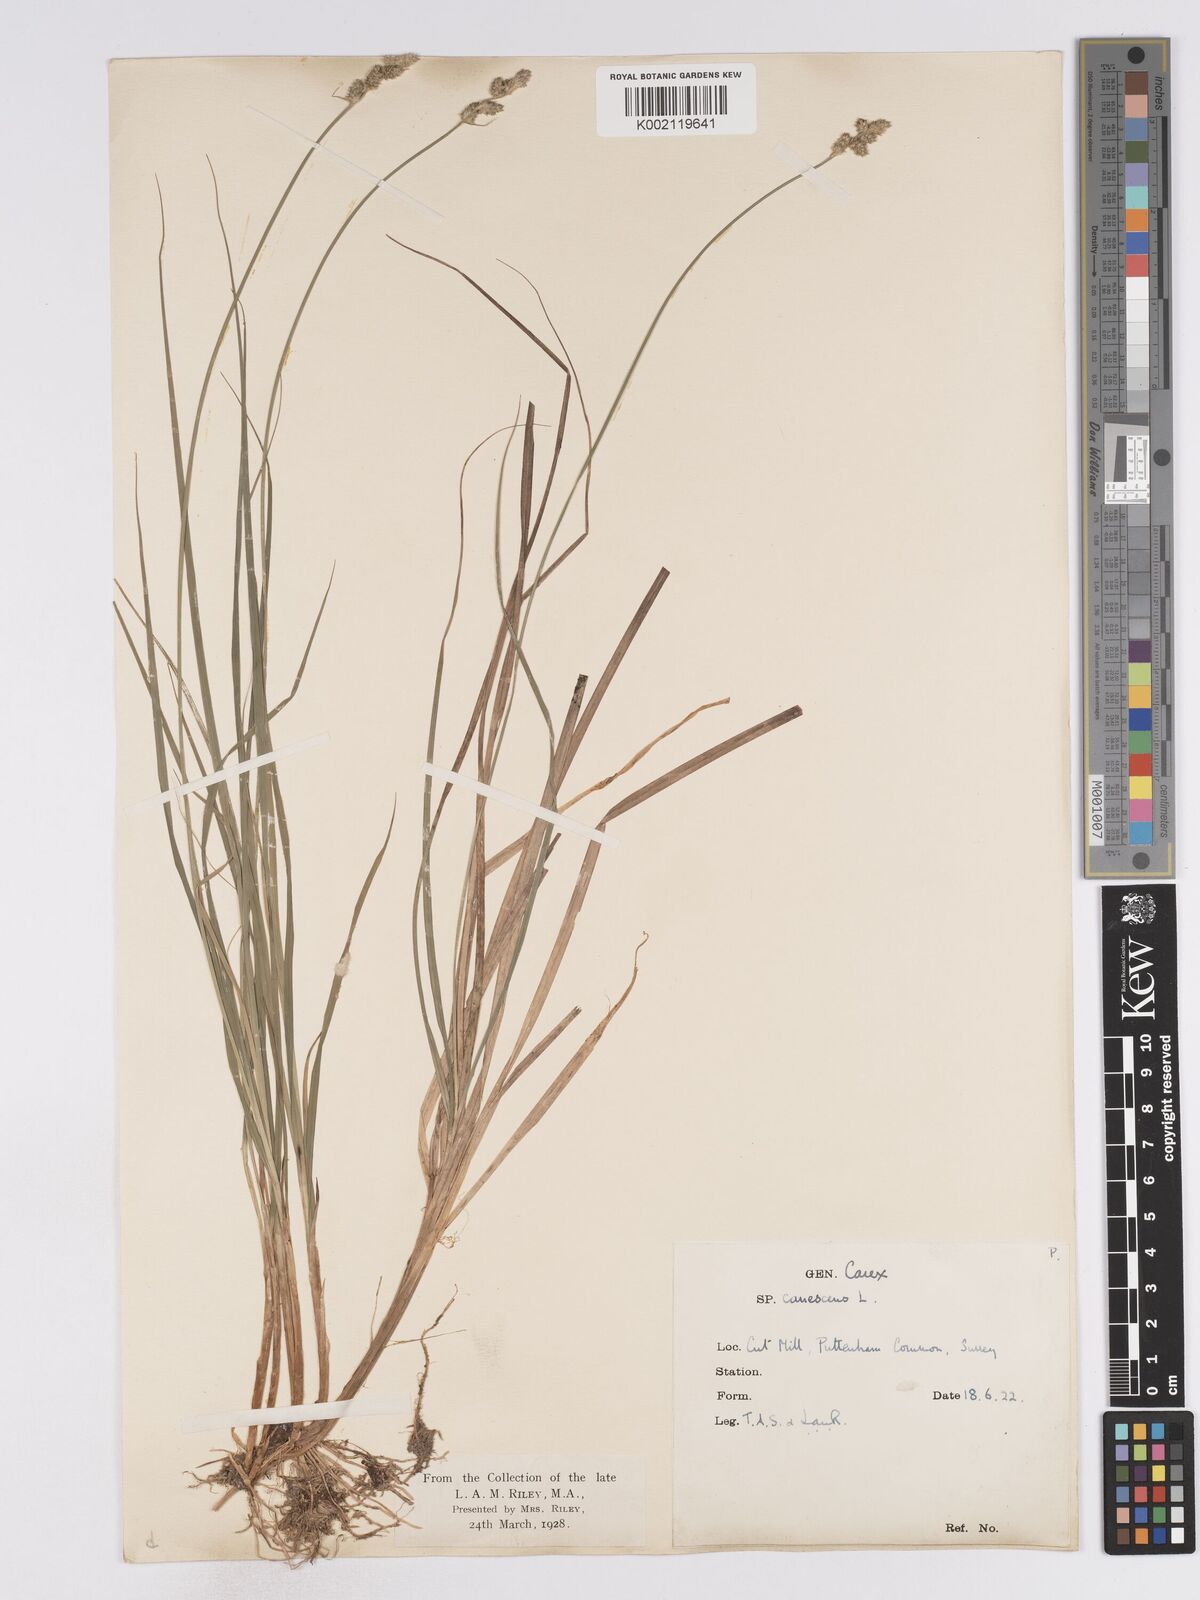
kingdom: Plantae
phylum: Tracheophyta
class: Liliopsida
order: Poales
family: Cyperaceae
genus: Carex
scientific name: Carex curta
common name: White sedge
